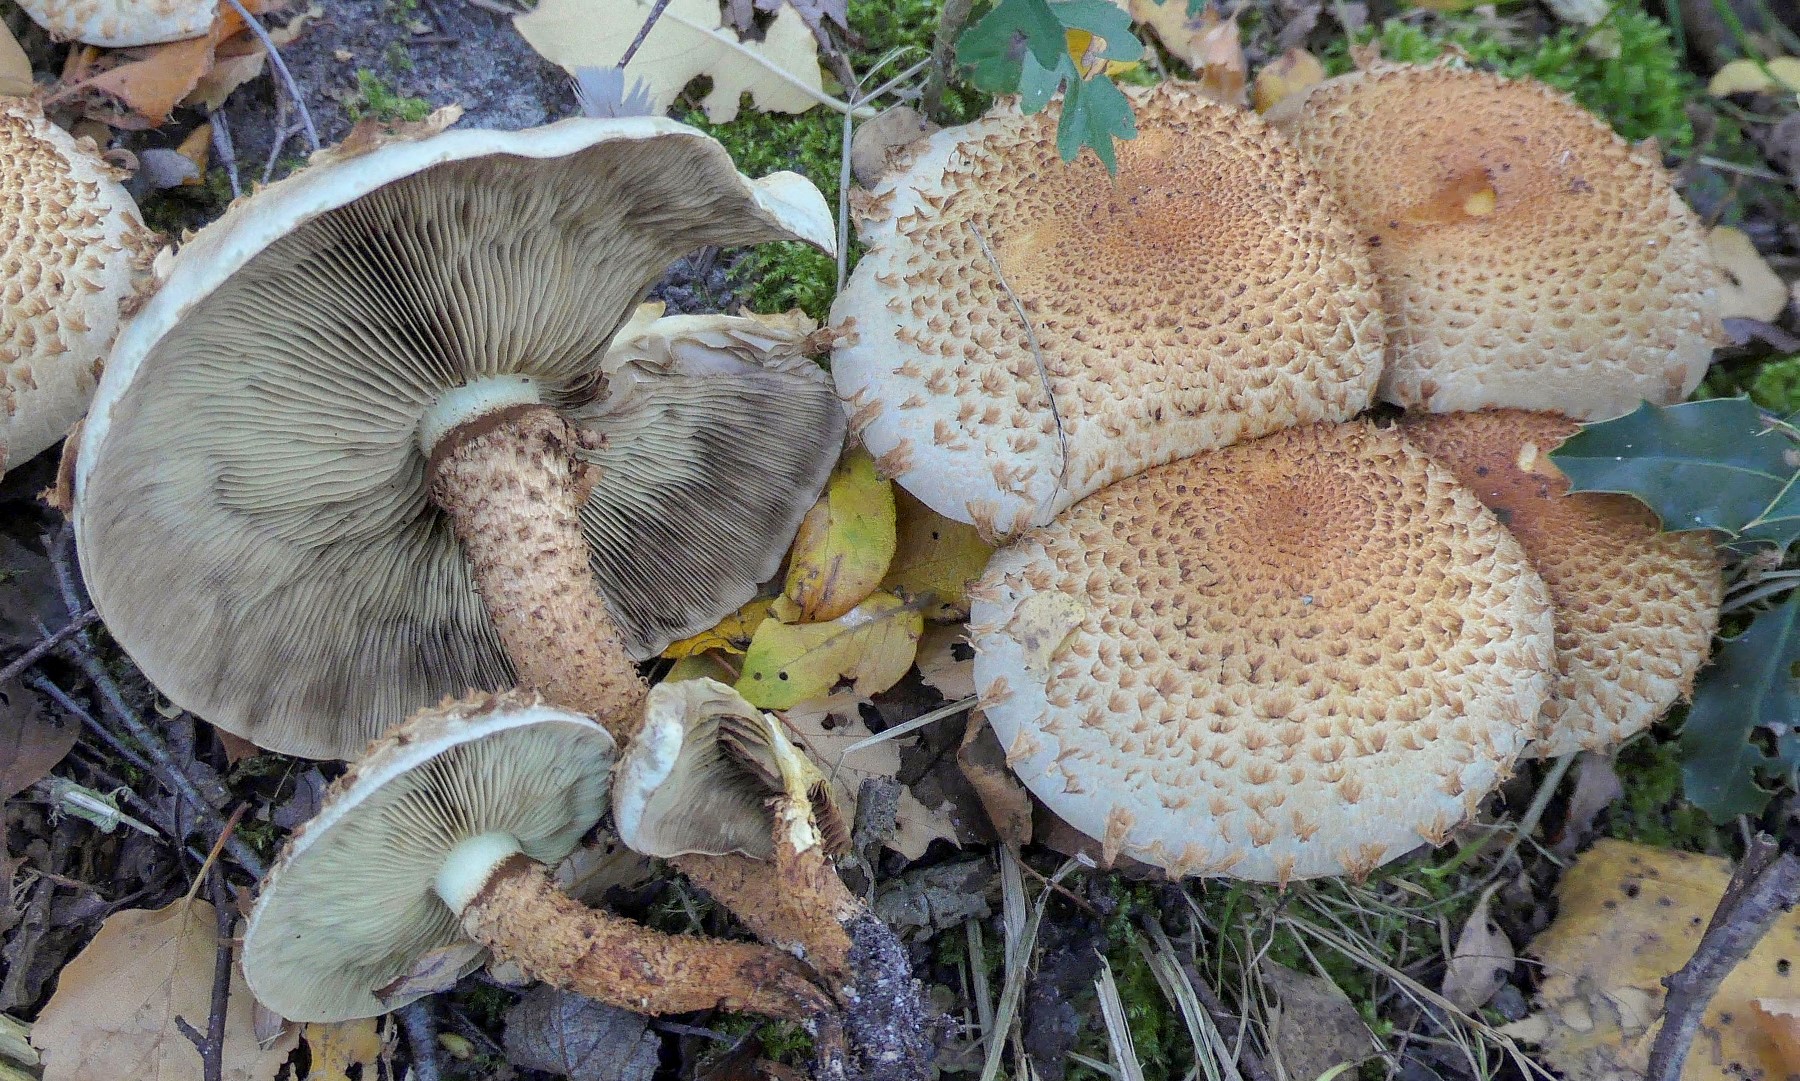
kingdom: Fungi
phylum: Basidiomycota
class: Agaricomycetes
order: Agaricales
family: Strophariaceae
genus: Pholiota
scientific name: Pholiota squarrosa
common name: krumskællet skælhat
